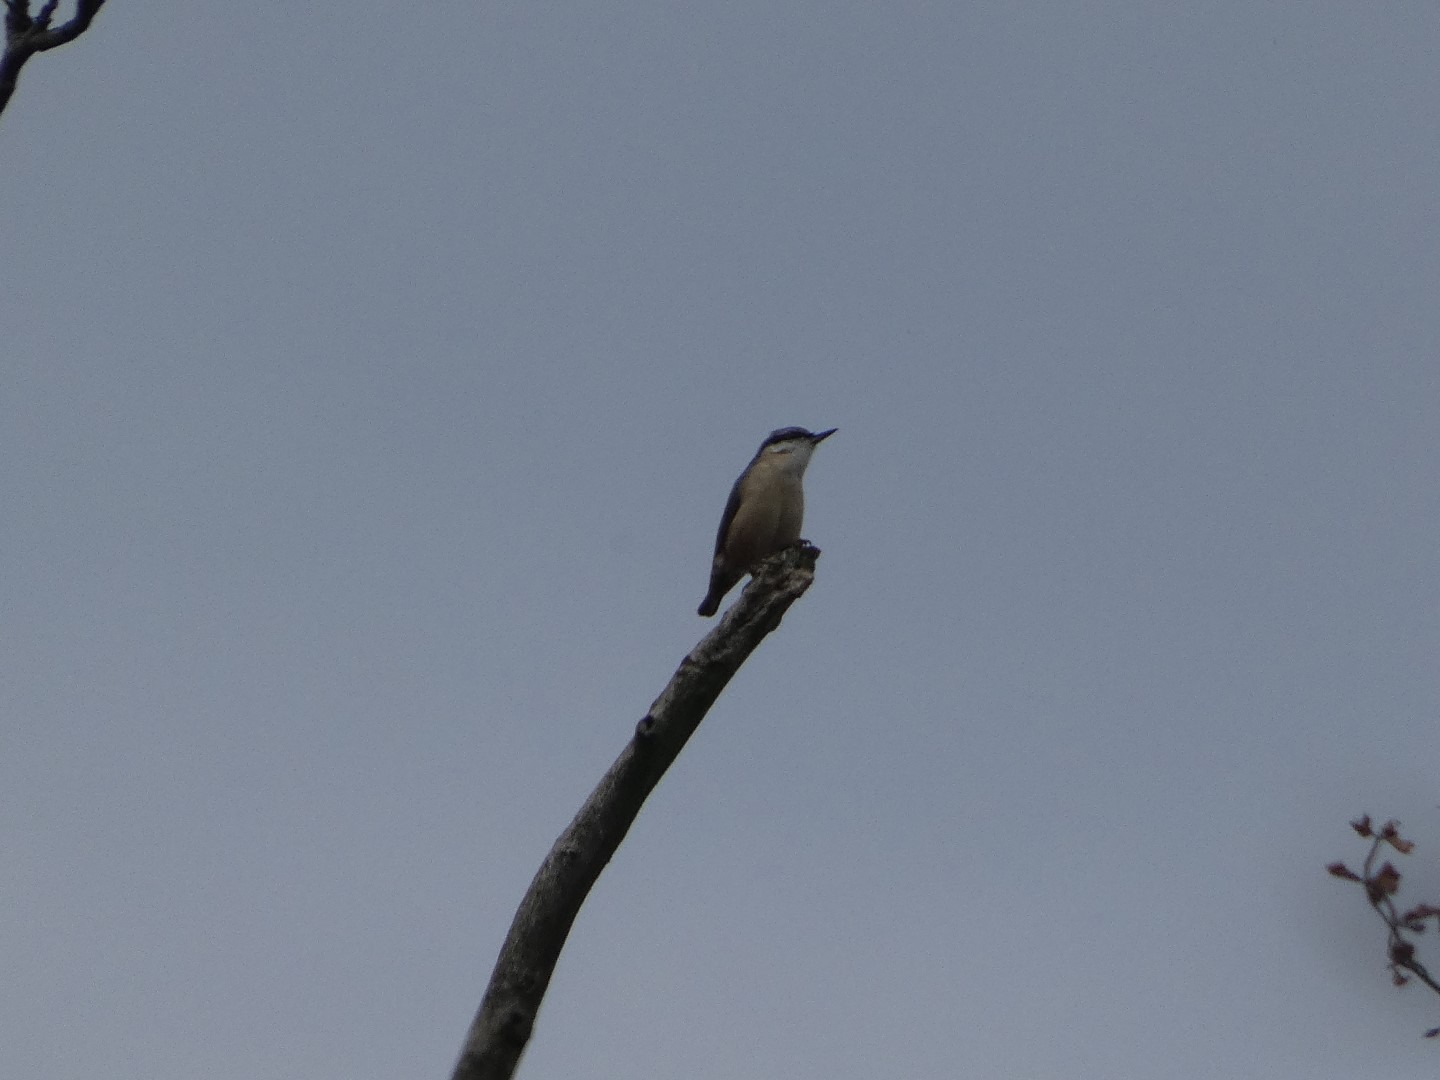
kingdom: Animalia
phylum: Chordata
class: Aves
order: Passeriformes
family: Sittidae
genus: Sitta
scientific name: Sitta europaea
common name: Spætmejse
